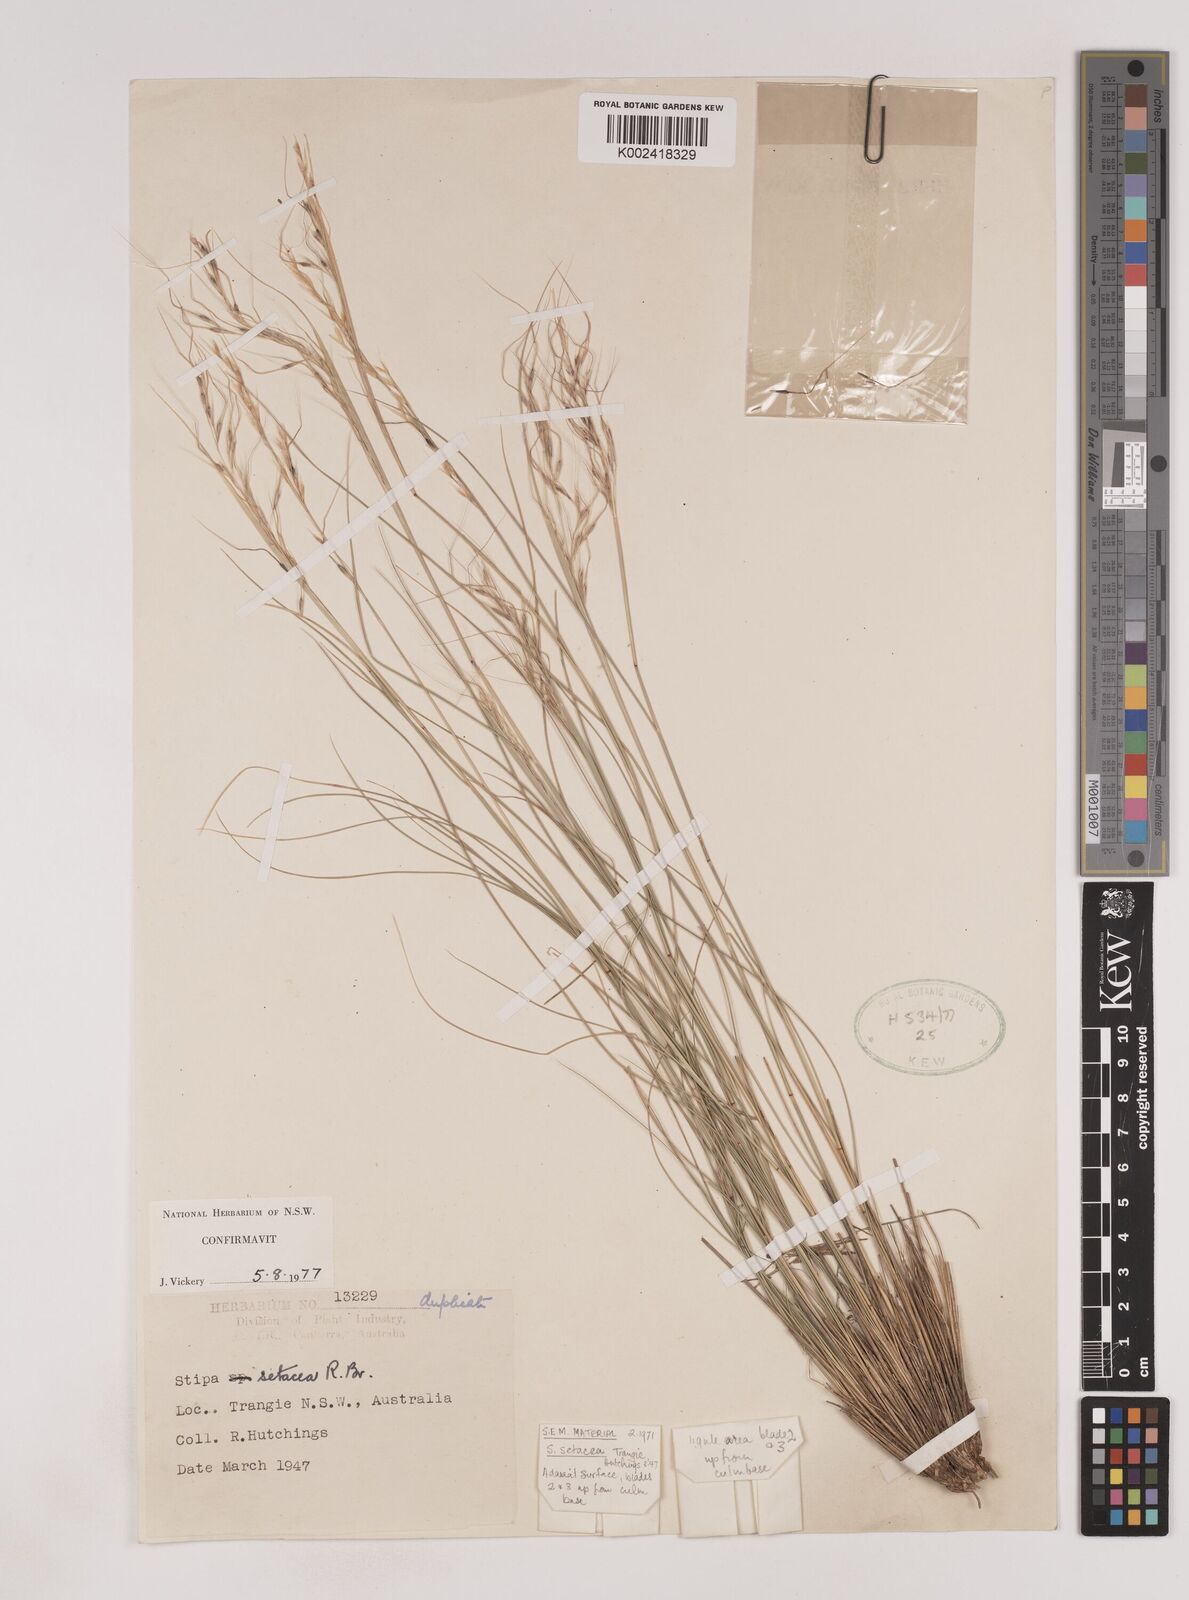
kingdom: Plantae
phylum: Tracheophyta
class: Liliopsida
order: Poales
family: Poaceae
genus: Piptochaetium
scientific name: Piptochaetium
